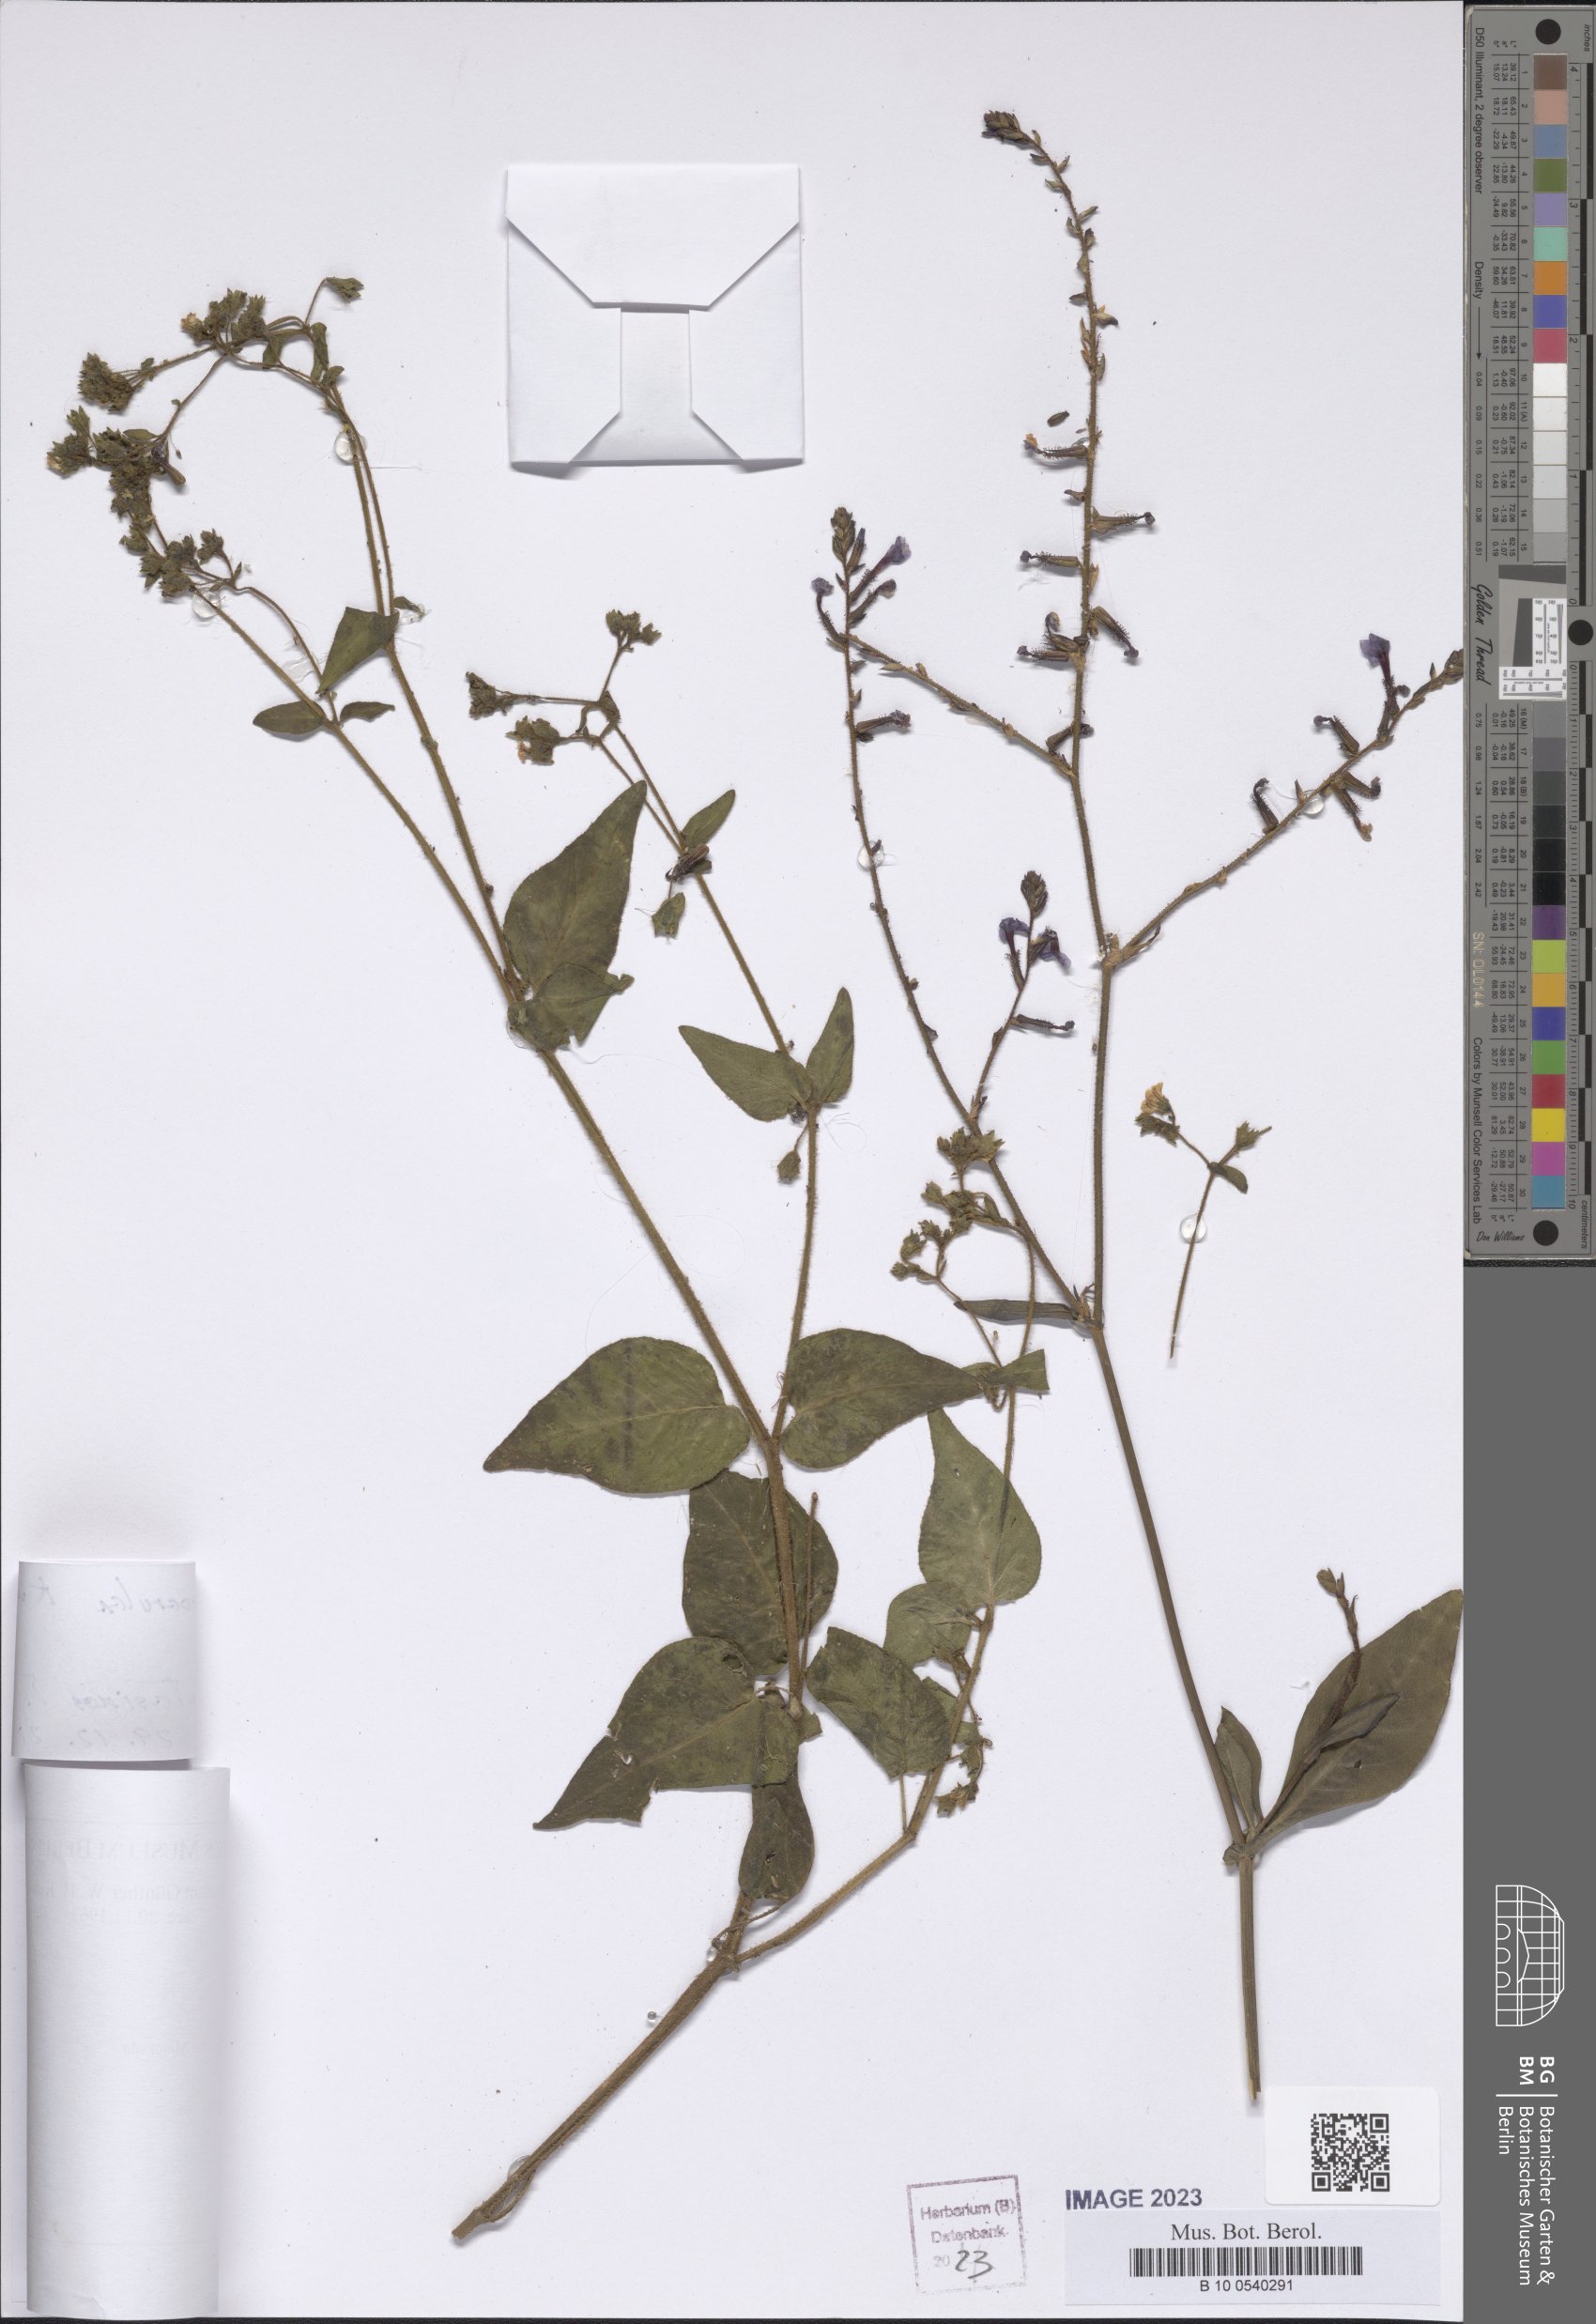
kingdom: Plantae
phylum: Tracheophyta
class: Magnoliopsida
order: Caryophyllales
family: Plumbaginaceae
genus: Plumbago
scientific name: Plumbago caerulea
